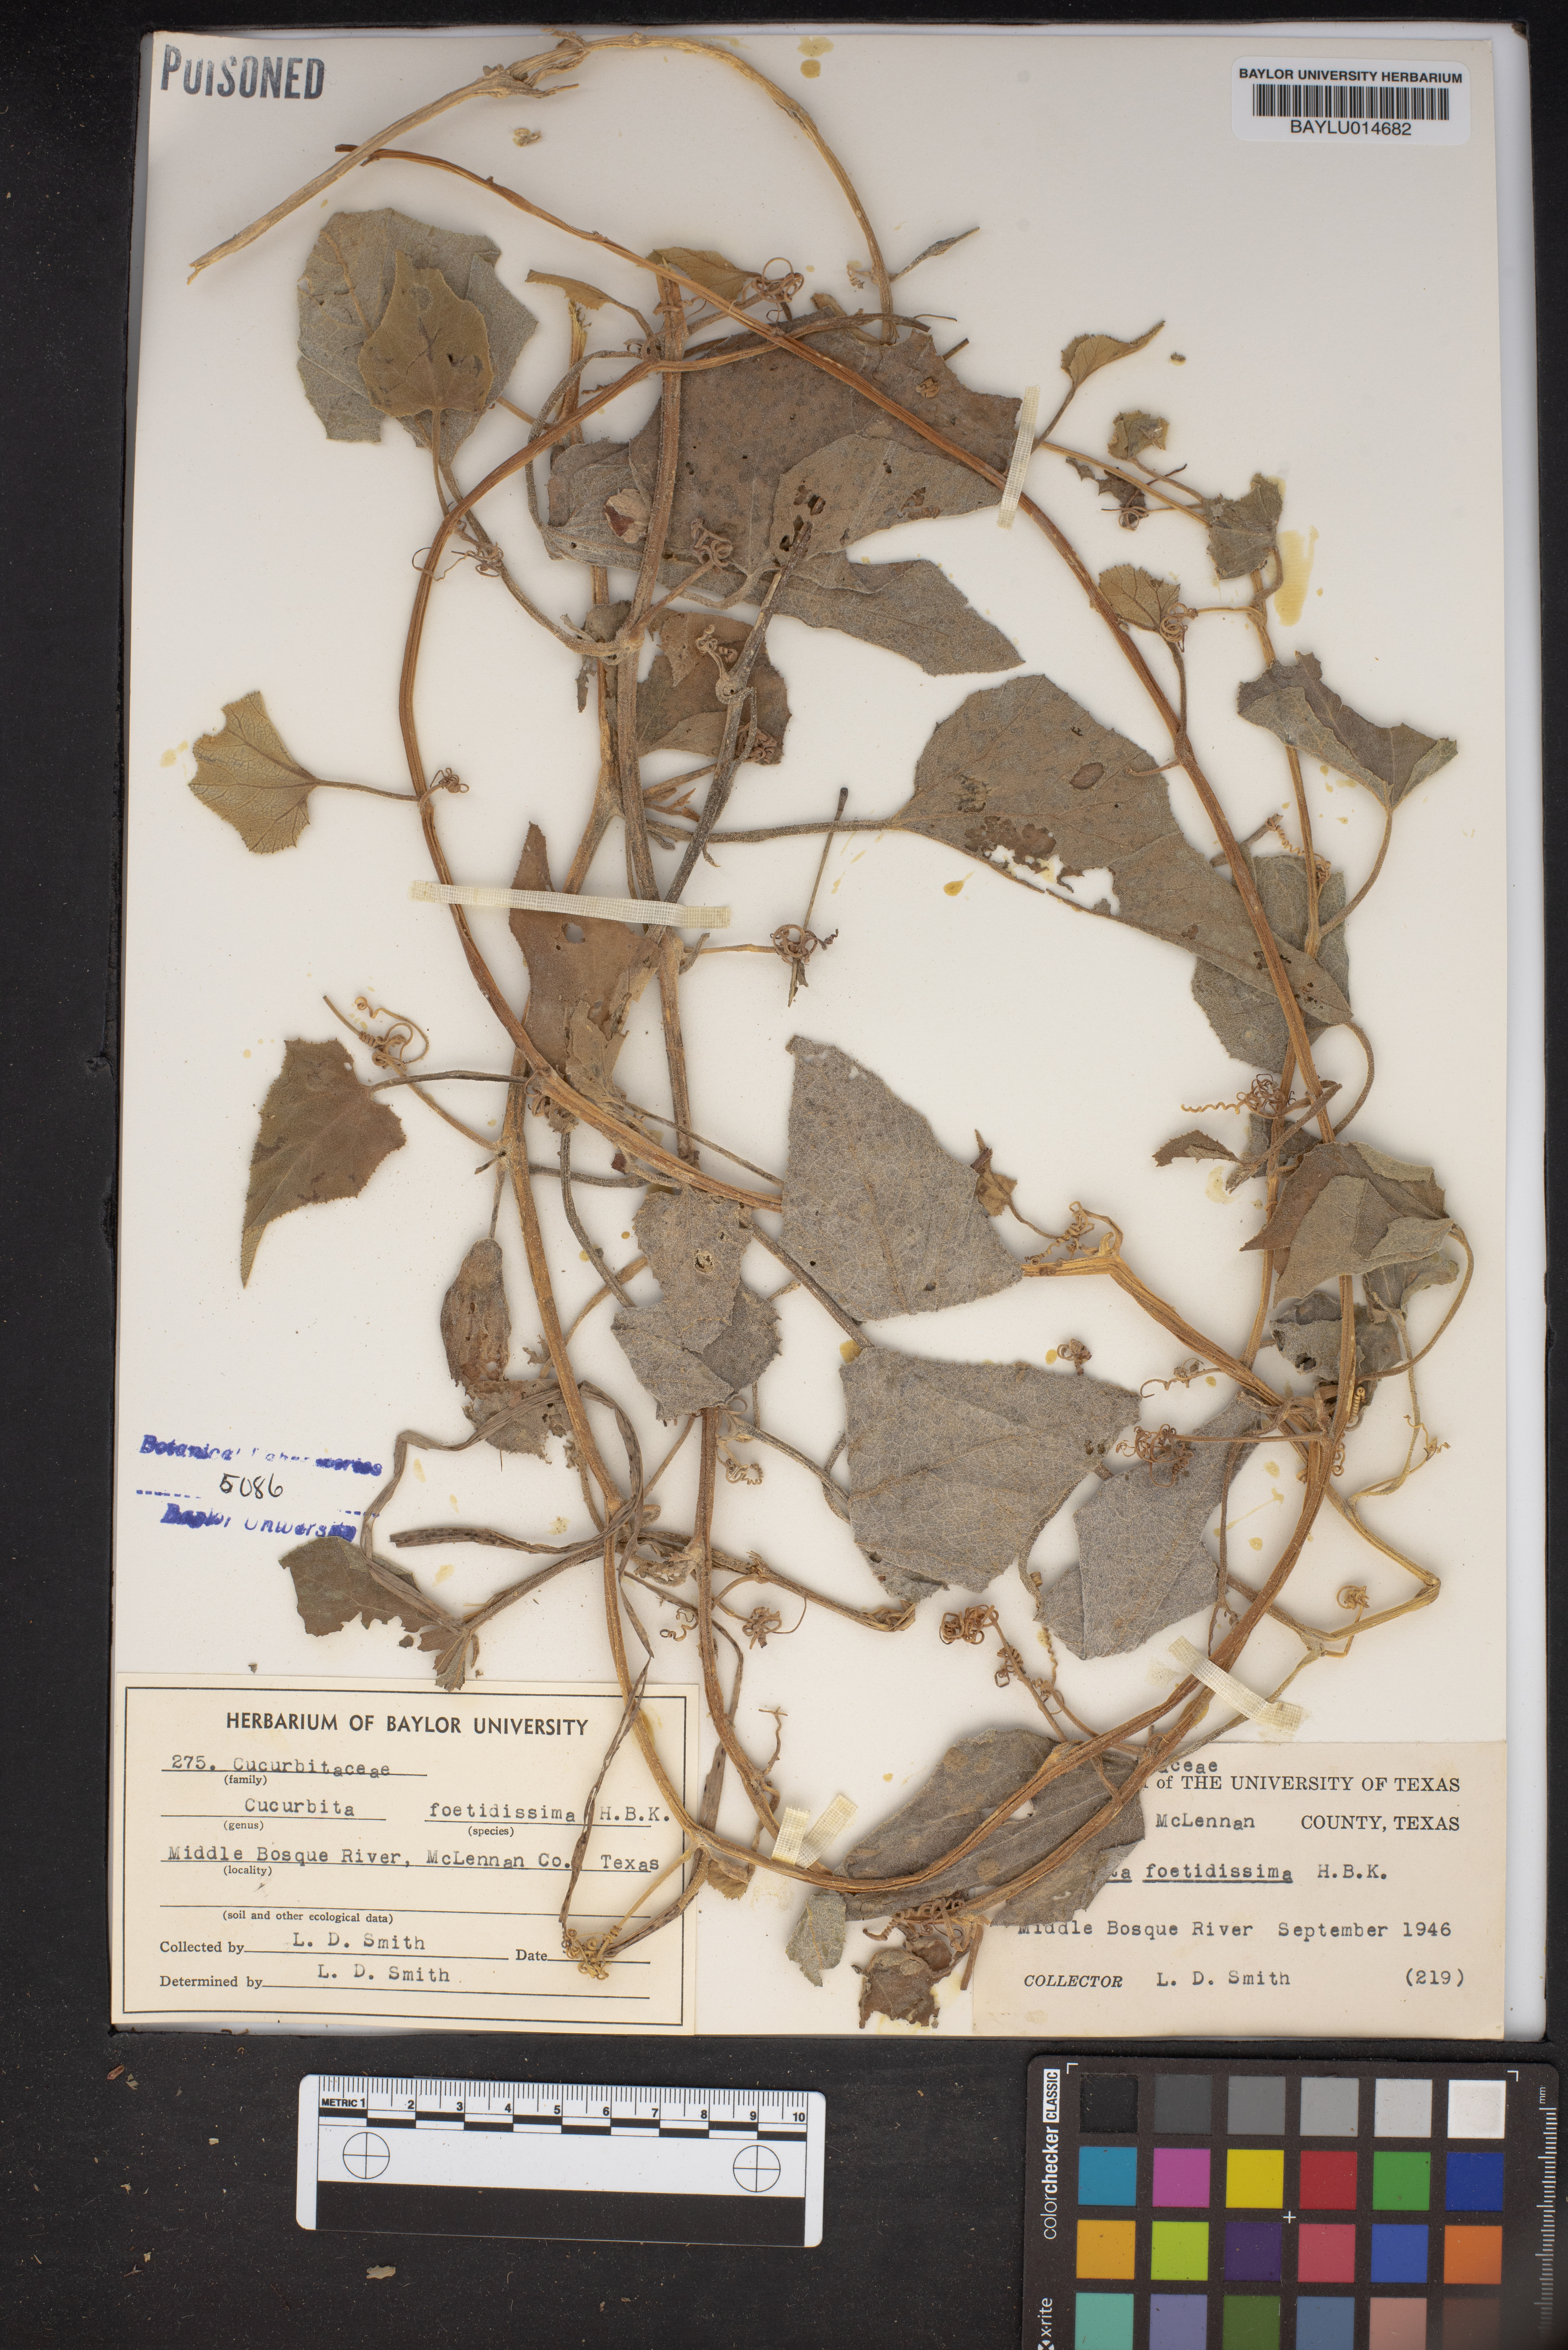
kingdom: Plantae
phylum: Tracheophyta
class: Magnoliopsida
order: Cucurbitales
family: Cucurbitaceae
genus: Cucurbita
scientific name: Cucurbita foetidissima
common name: Buffalo gourd
